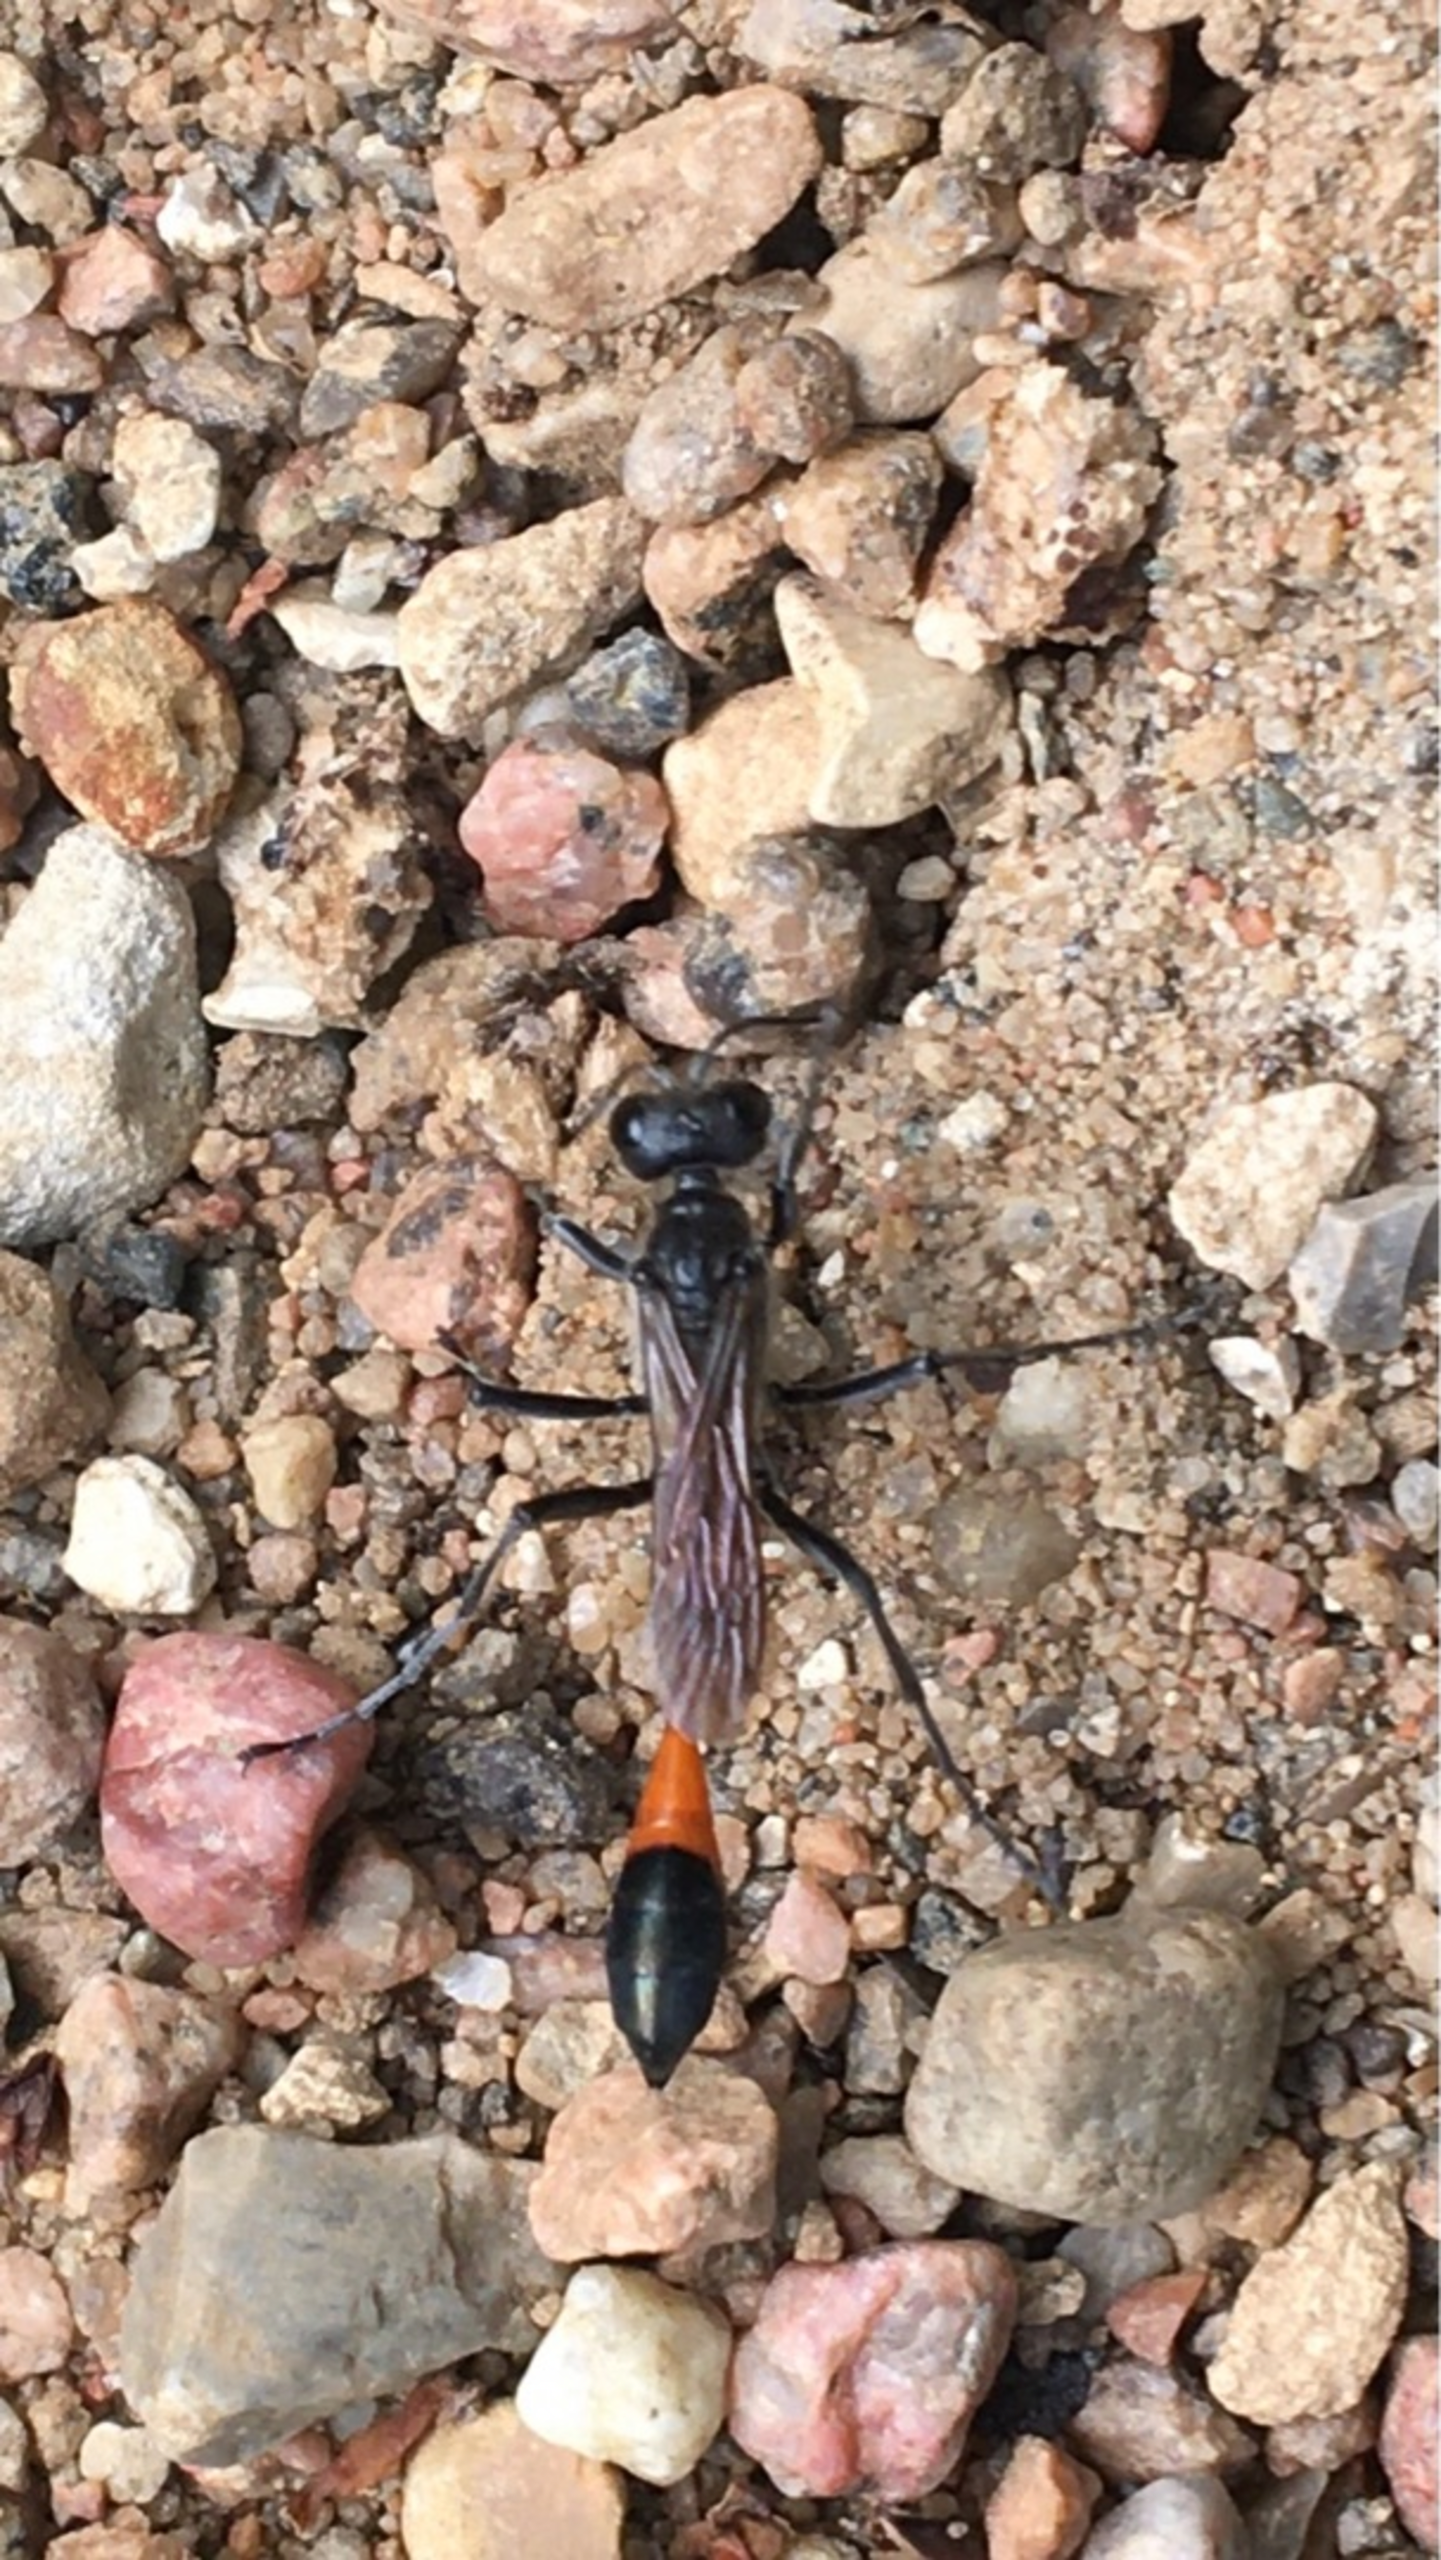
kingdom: Animalia
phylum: Arthropoda
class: Insecta
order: Hymenoptera
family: Sphecidae
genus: Ammophila
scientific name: Ammophila sabulosa
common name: Almindelig sandhveps
